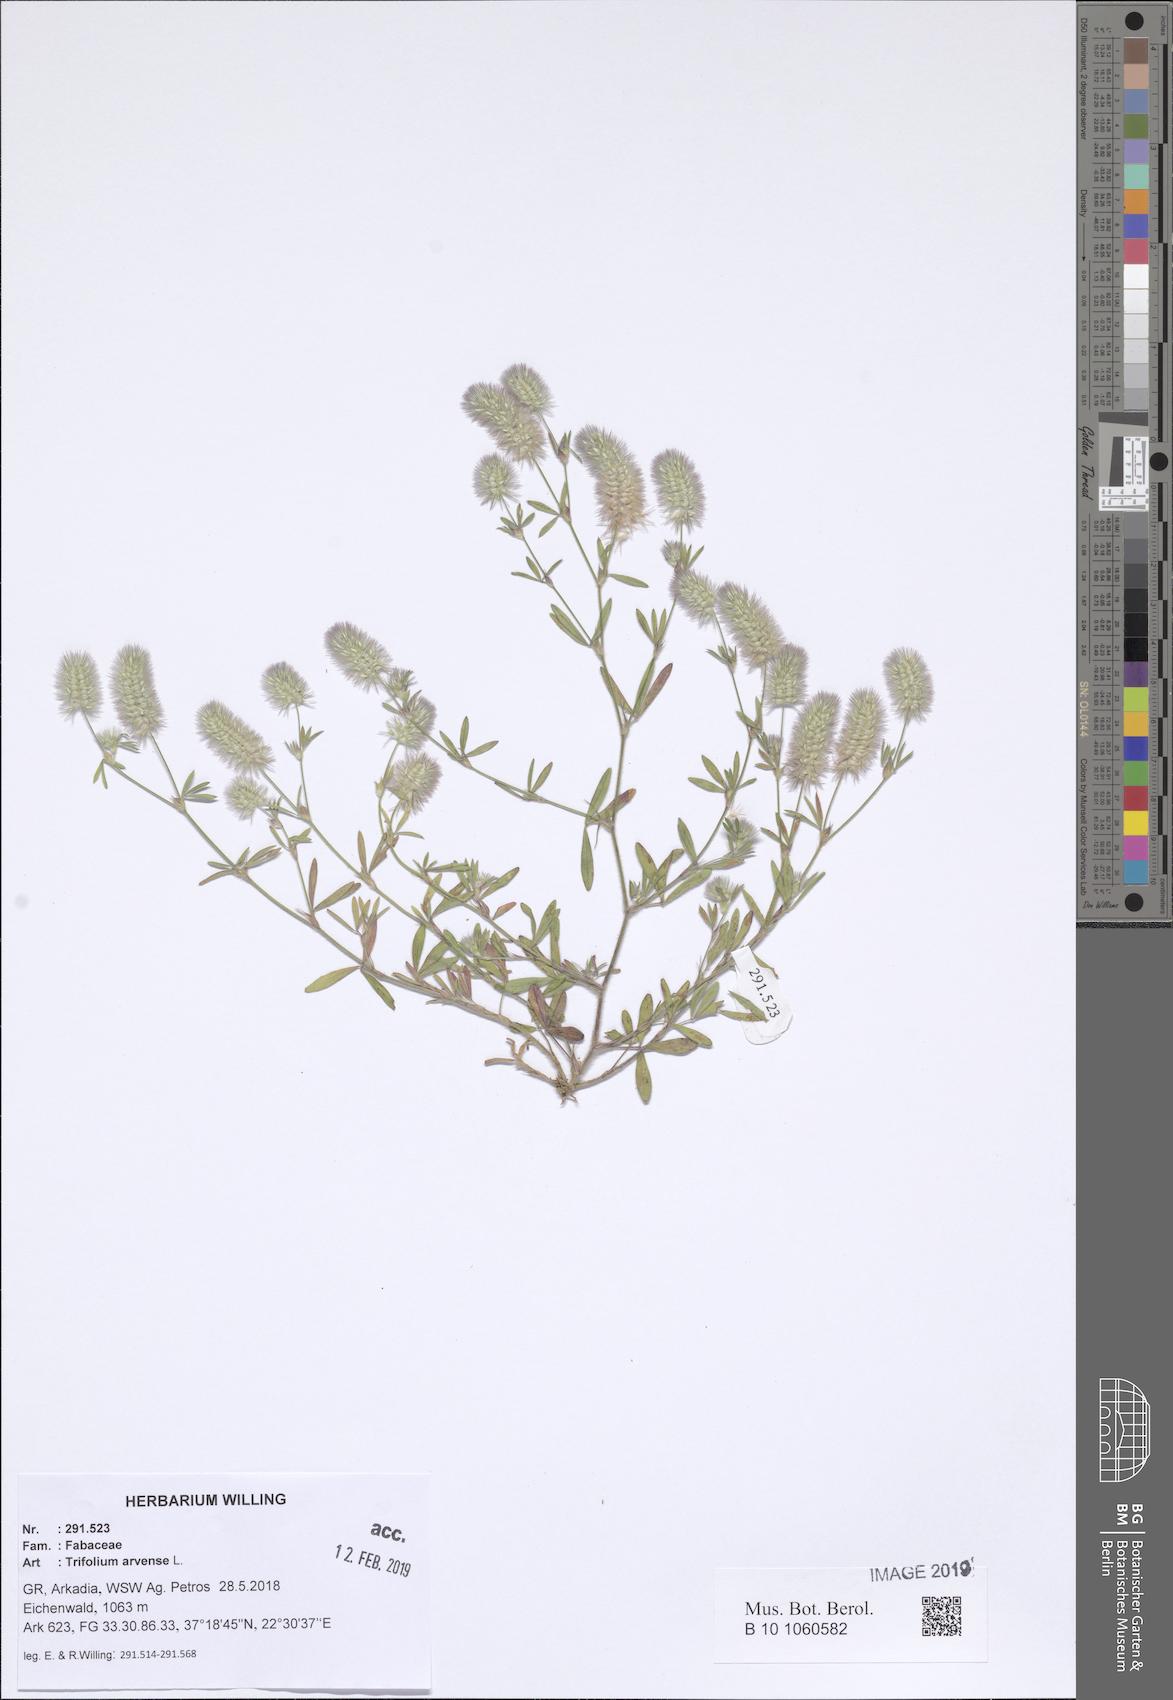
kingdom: Plantae
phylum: Tracheophyta
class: Magnoliopsida
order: Fabales
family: Fabaceae
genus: Trifolium
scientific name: Trifolium arvense
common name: Hare's-foot clover
